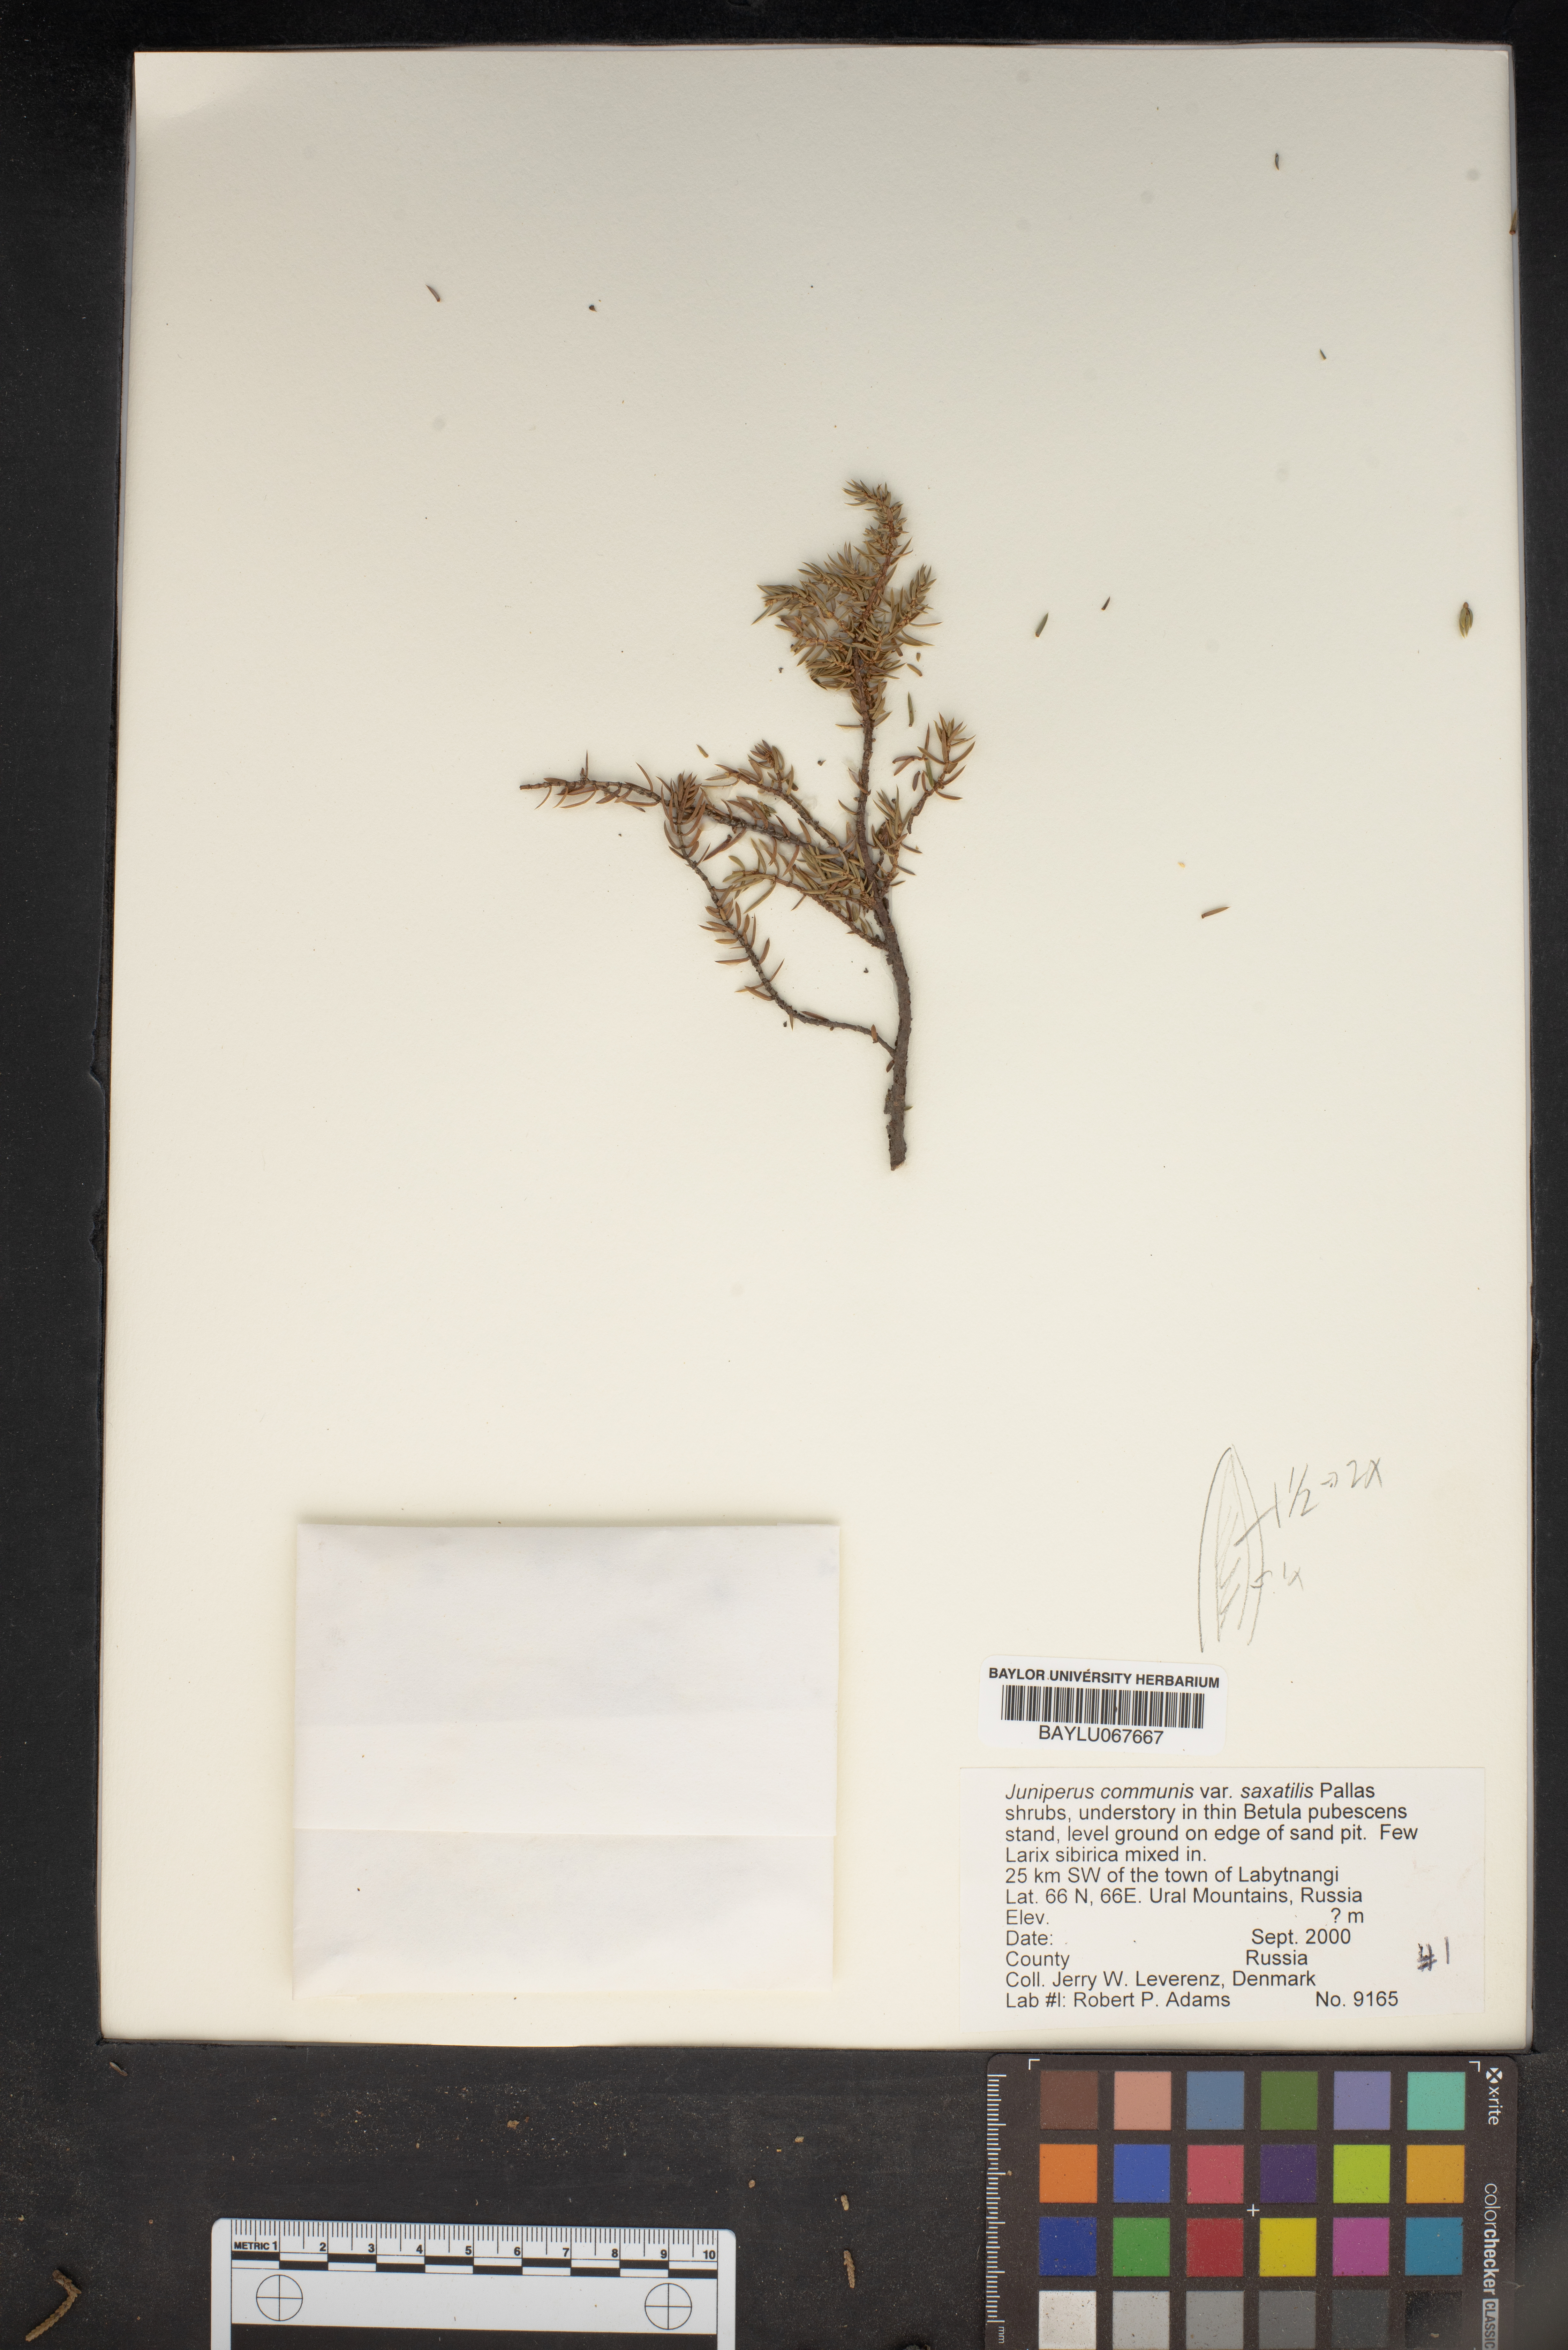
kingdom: Plantae
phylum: Tracheophyta
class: Pinopsida
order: Pinales
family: Cupressaceae
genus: Juniperus
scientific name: Juniperus communis
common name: Common juniper
